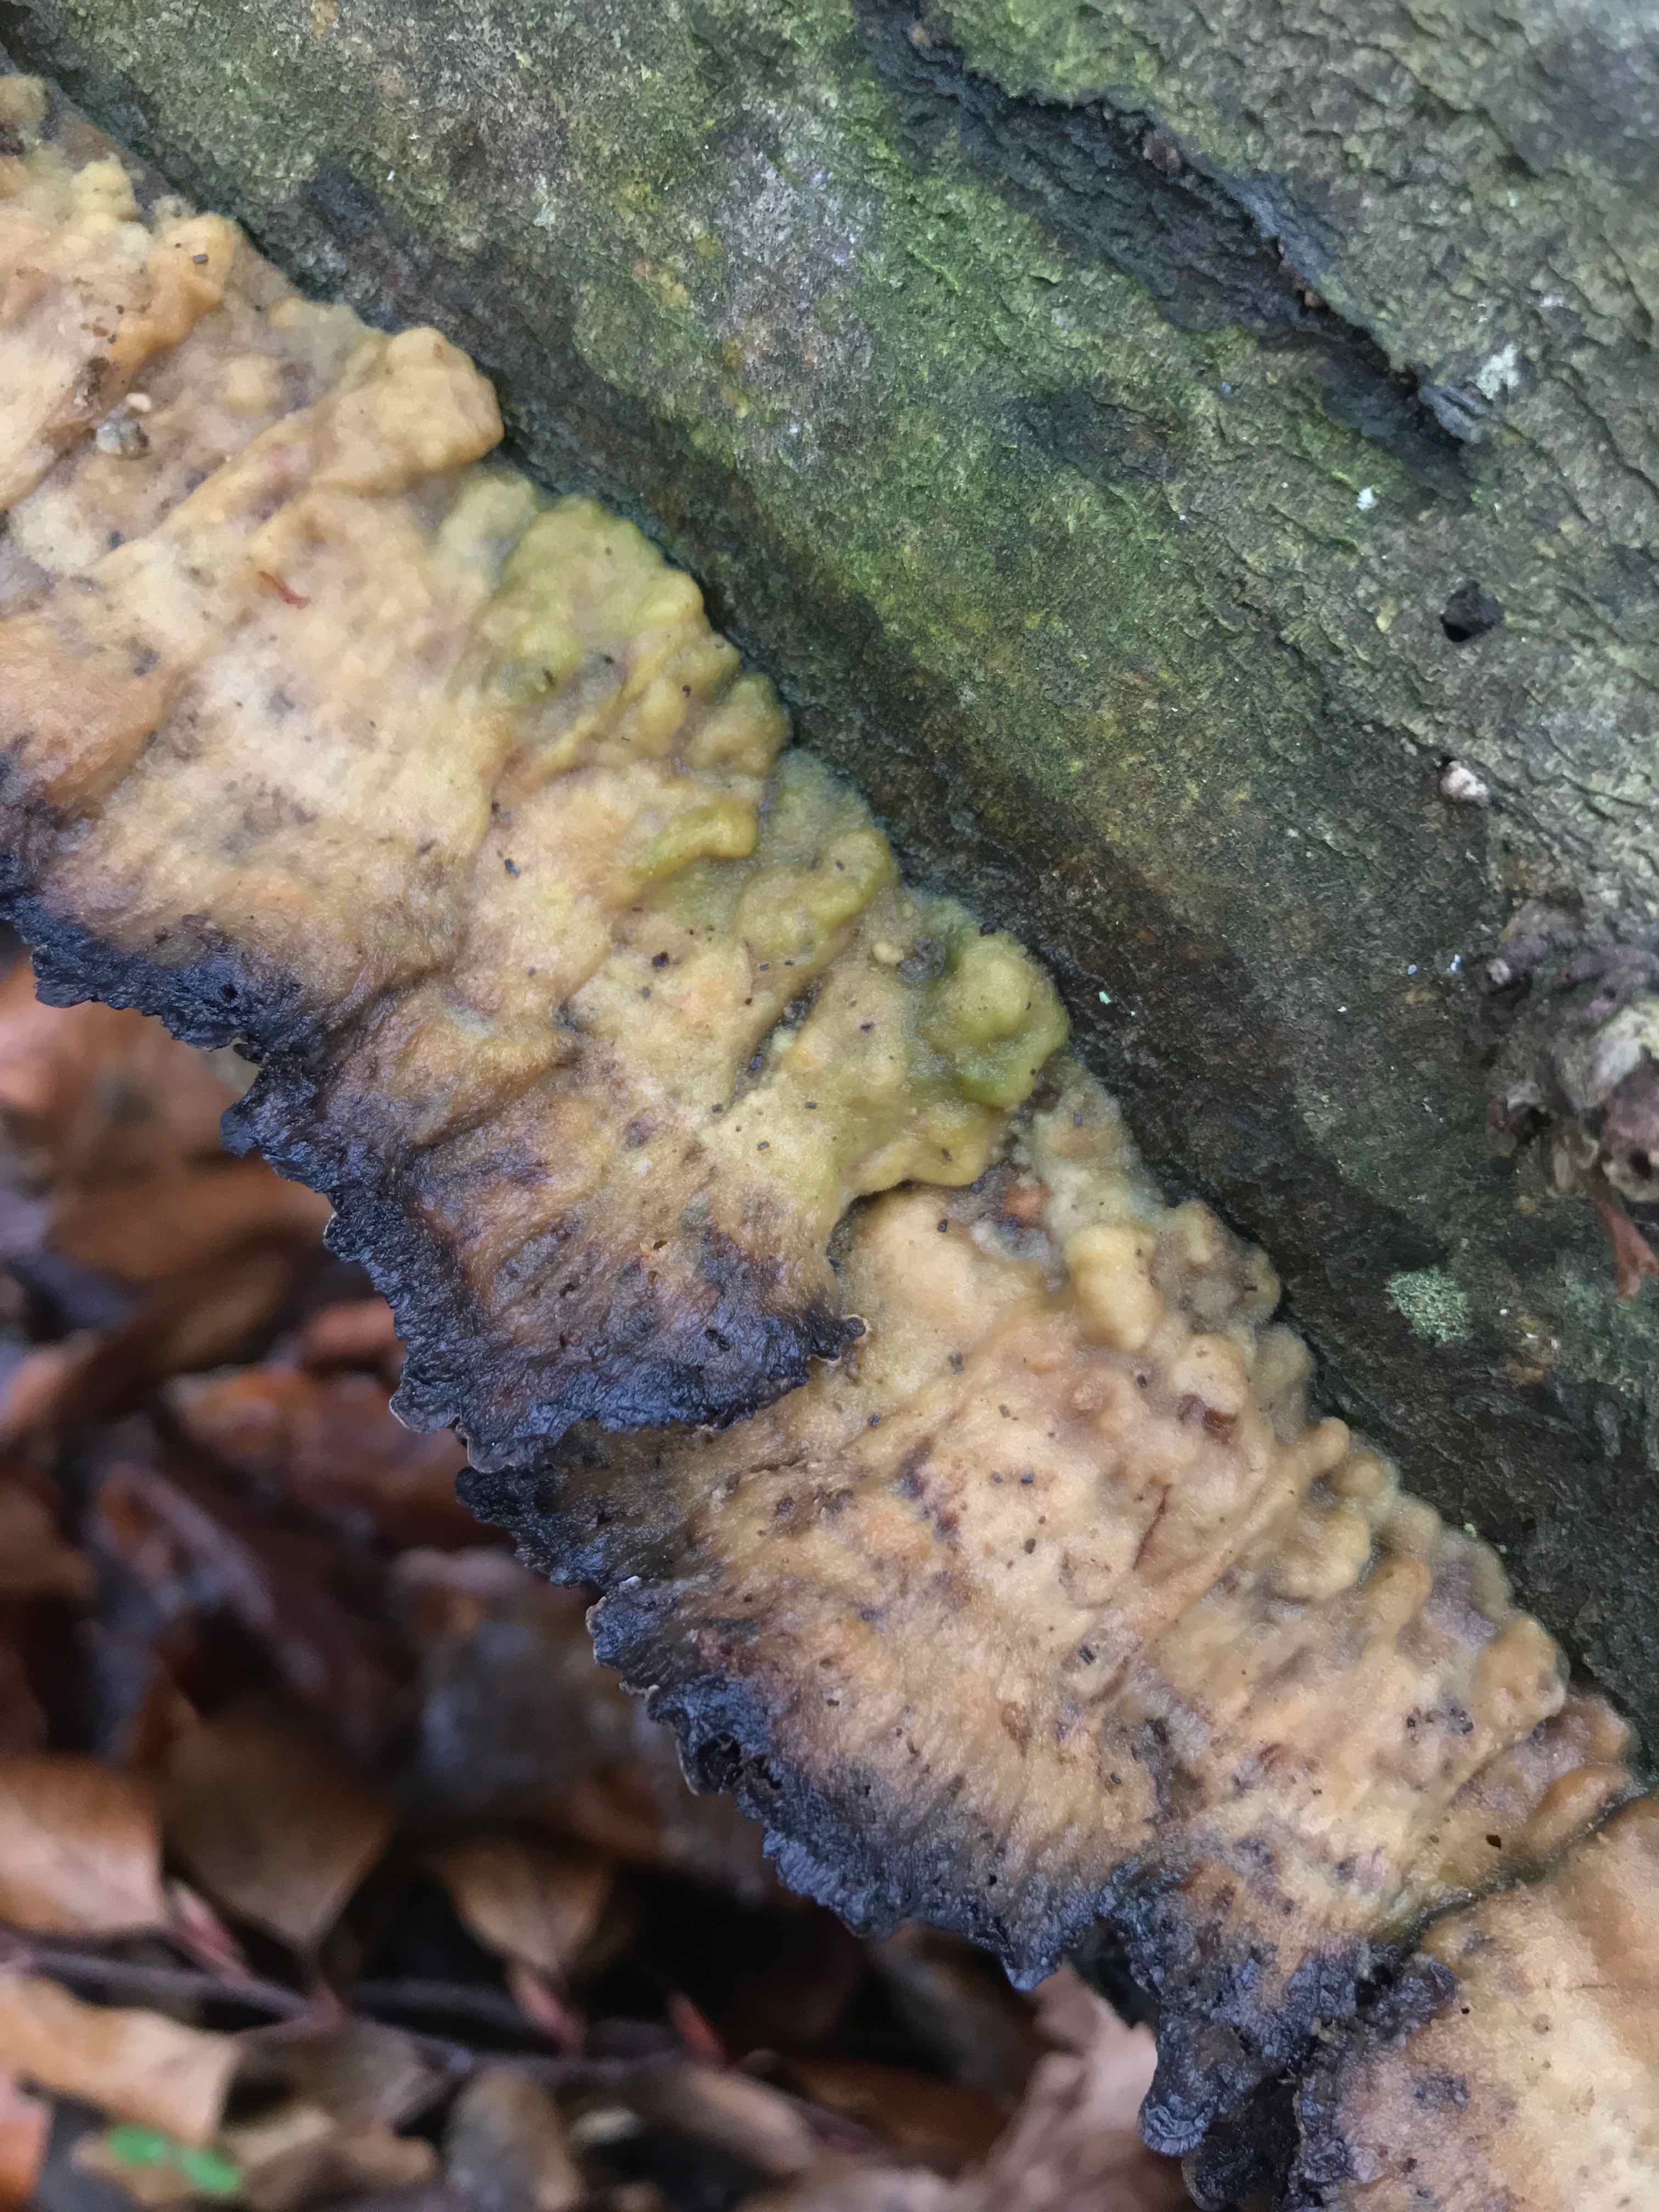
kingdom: Fungi
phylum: Basidiomycota
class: Agaricomycetes
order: Polyporales
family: Phanerochaetaceae
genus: Bjerkandera
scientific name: Bjerkandera adusta
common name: sveden sodporesvamp
